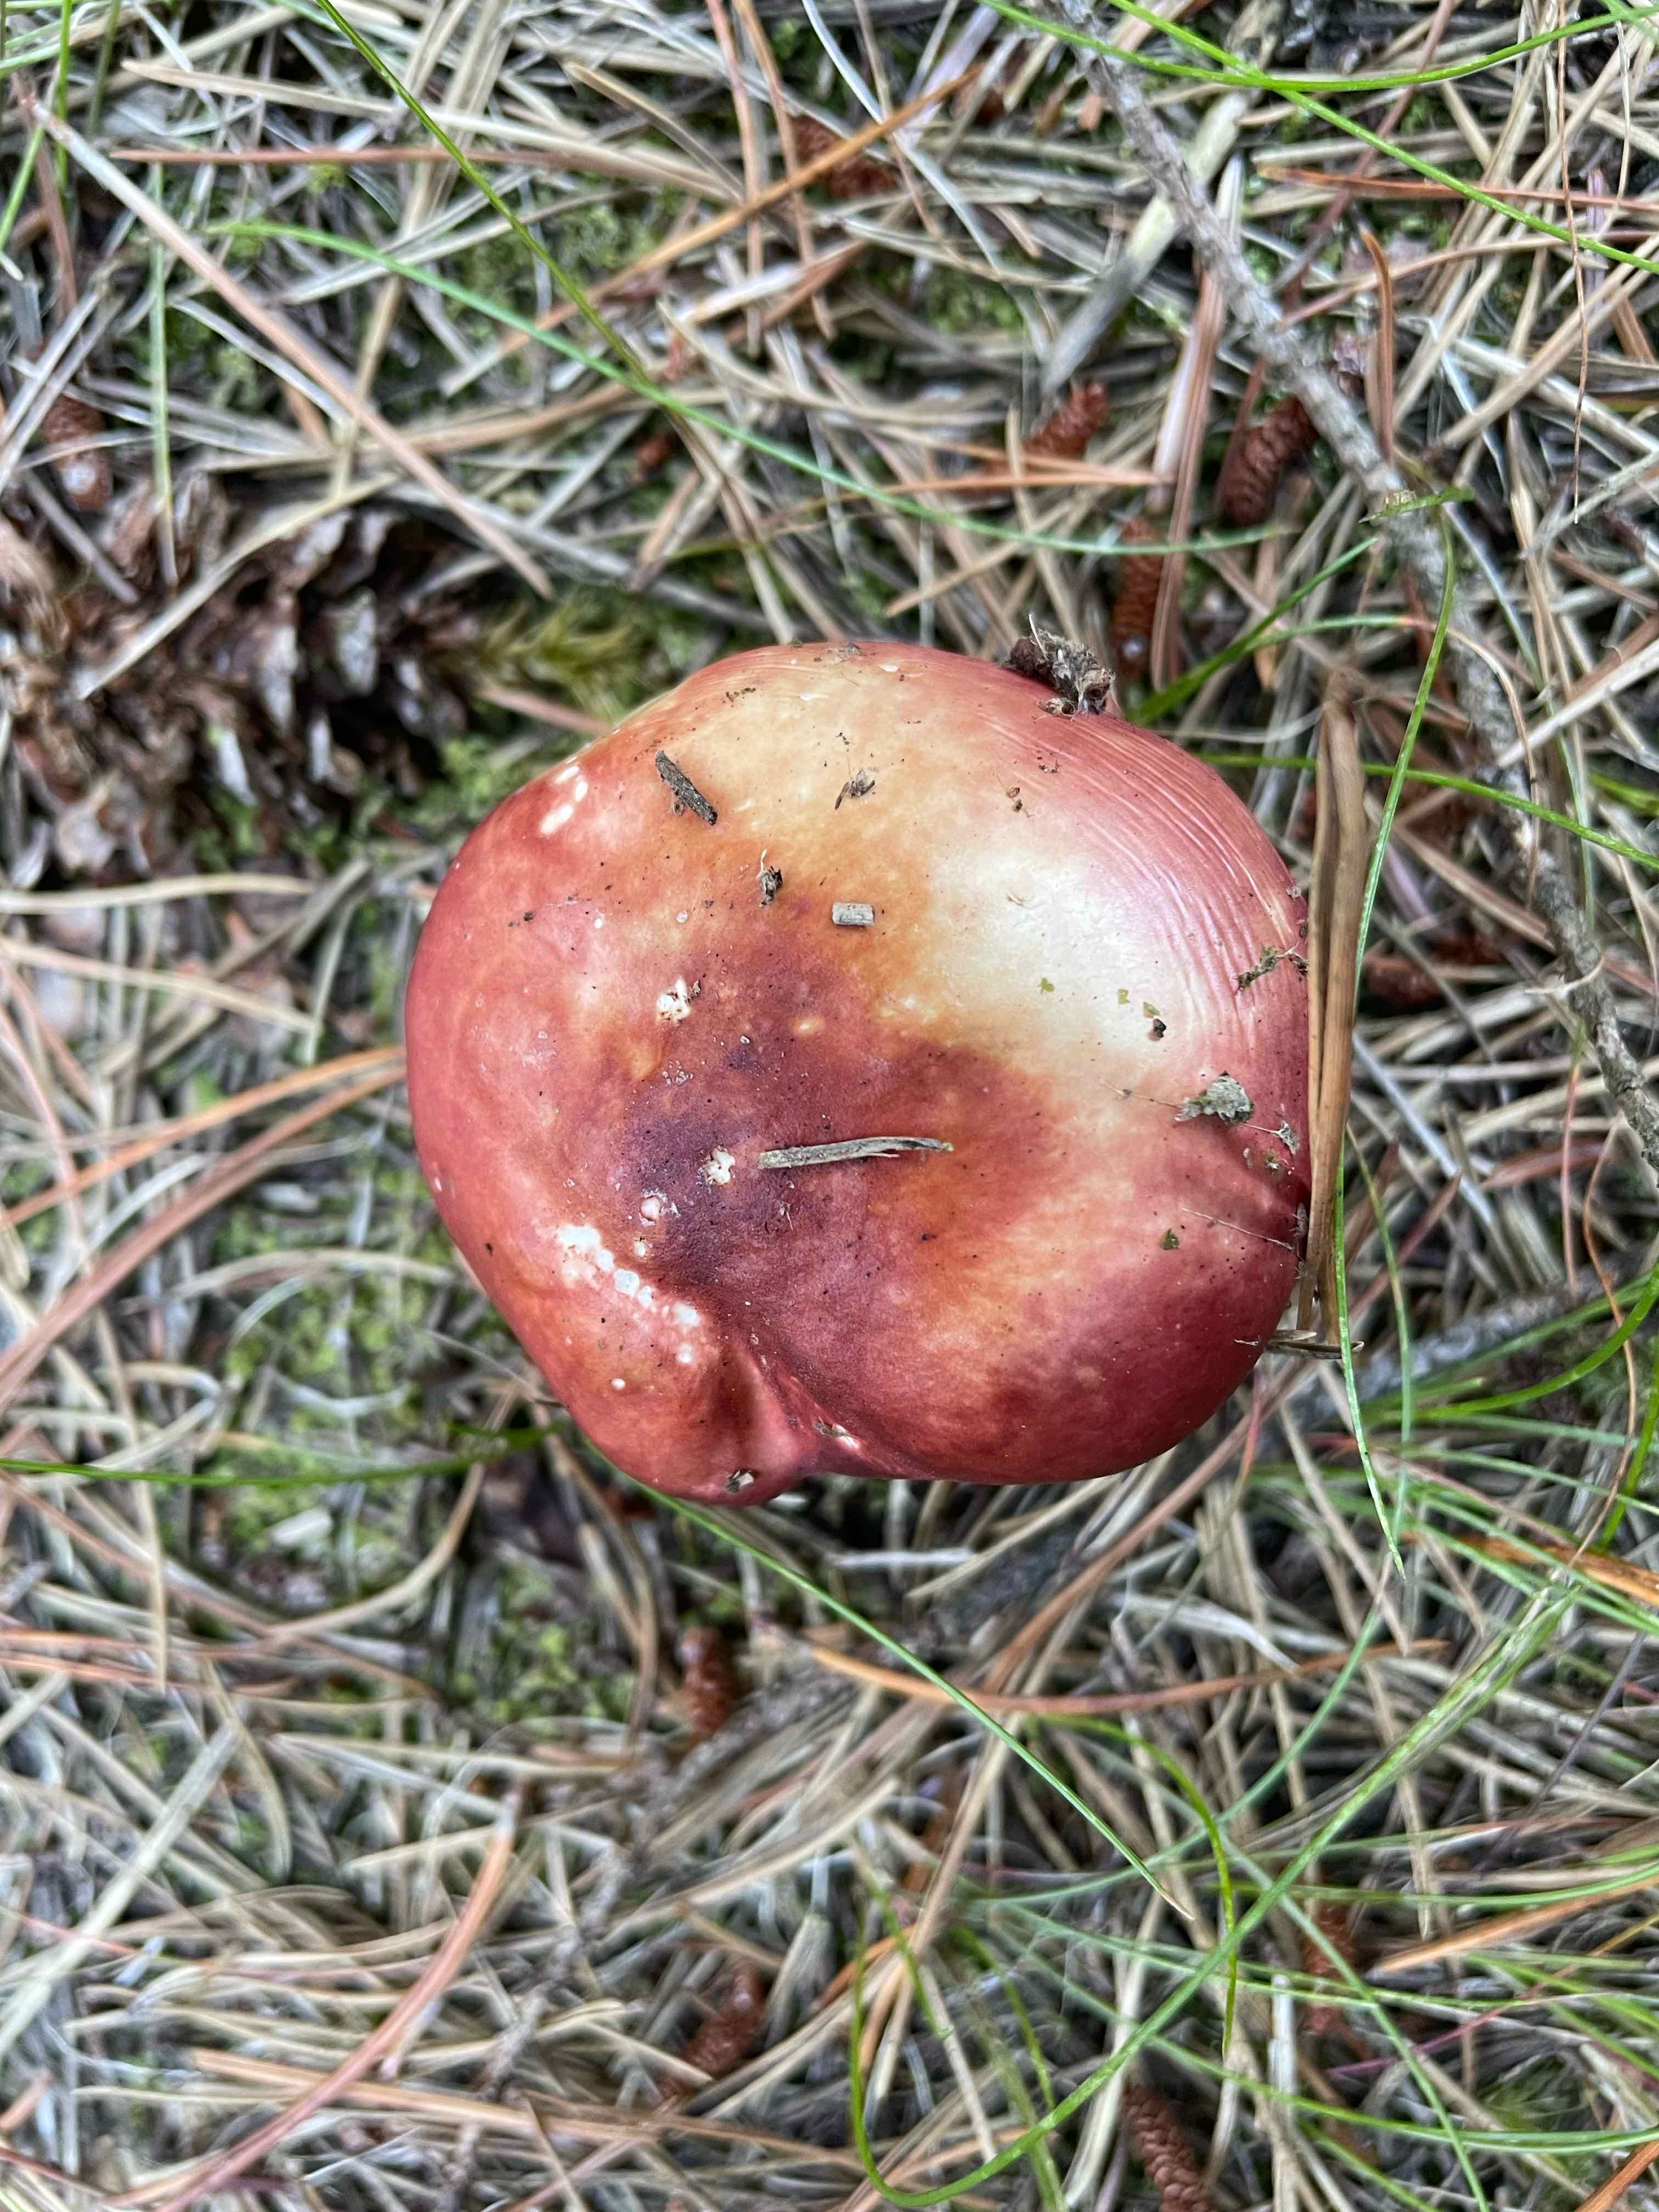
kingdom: Fungi
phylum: Basidiomycota
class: Agaricomycetes
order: Russulales
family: Russulaceae
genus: Russula
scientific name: Russula paludosa
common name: prægtig skørhat
